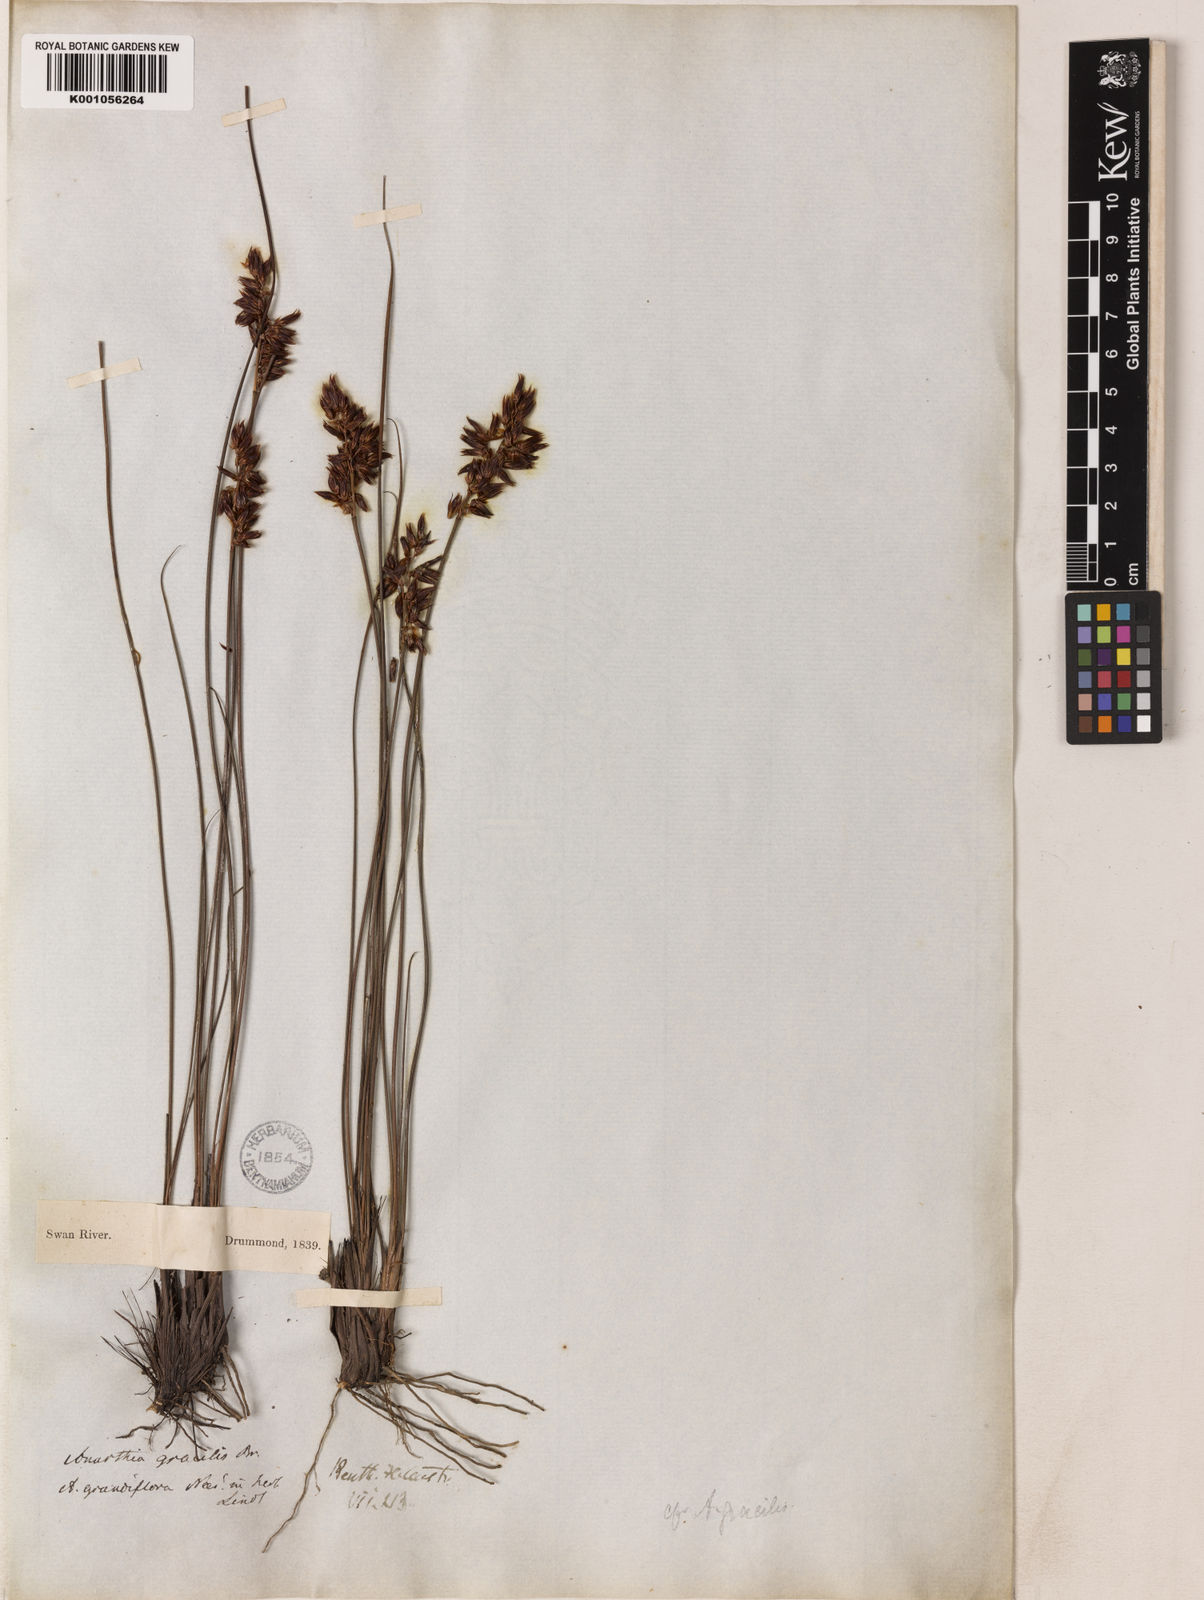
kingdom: Plantae
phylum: Tracheophyta
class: Liliopsida
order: Poales
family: Restionaceae
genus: Anarthria
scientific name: Anarthria gracilis
